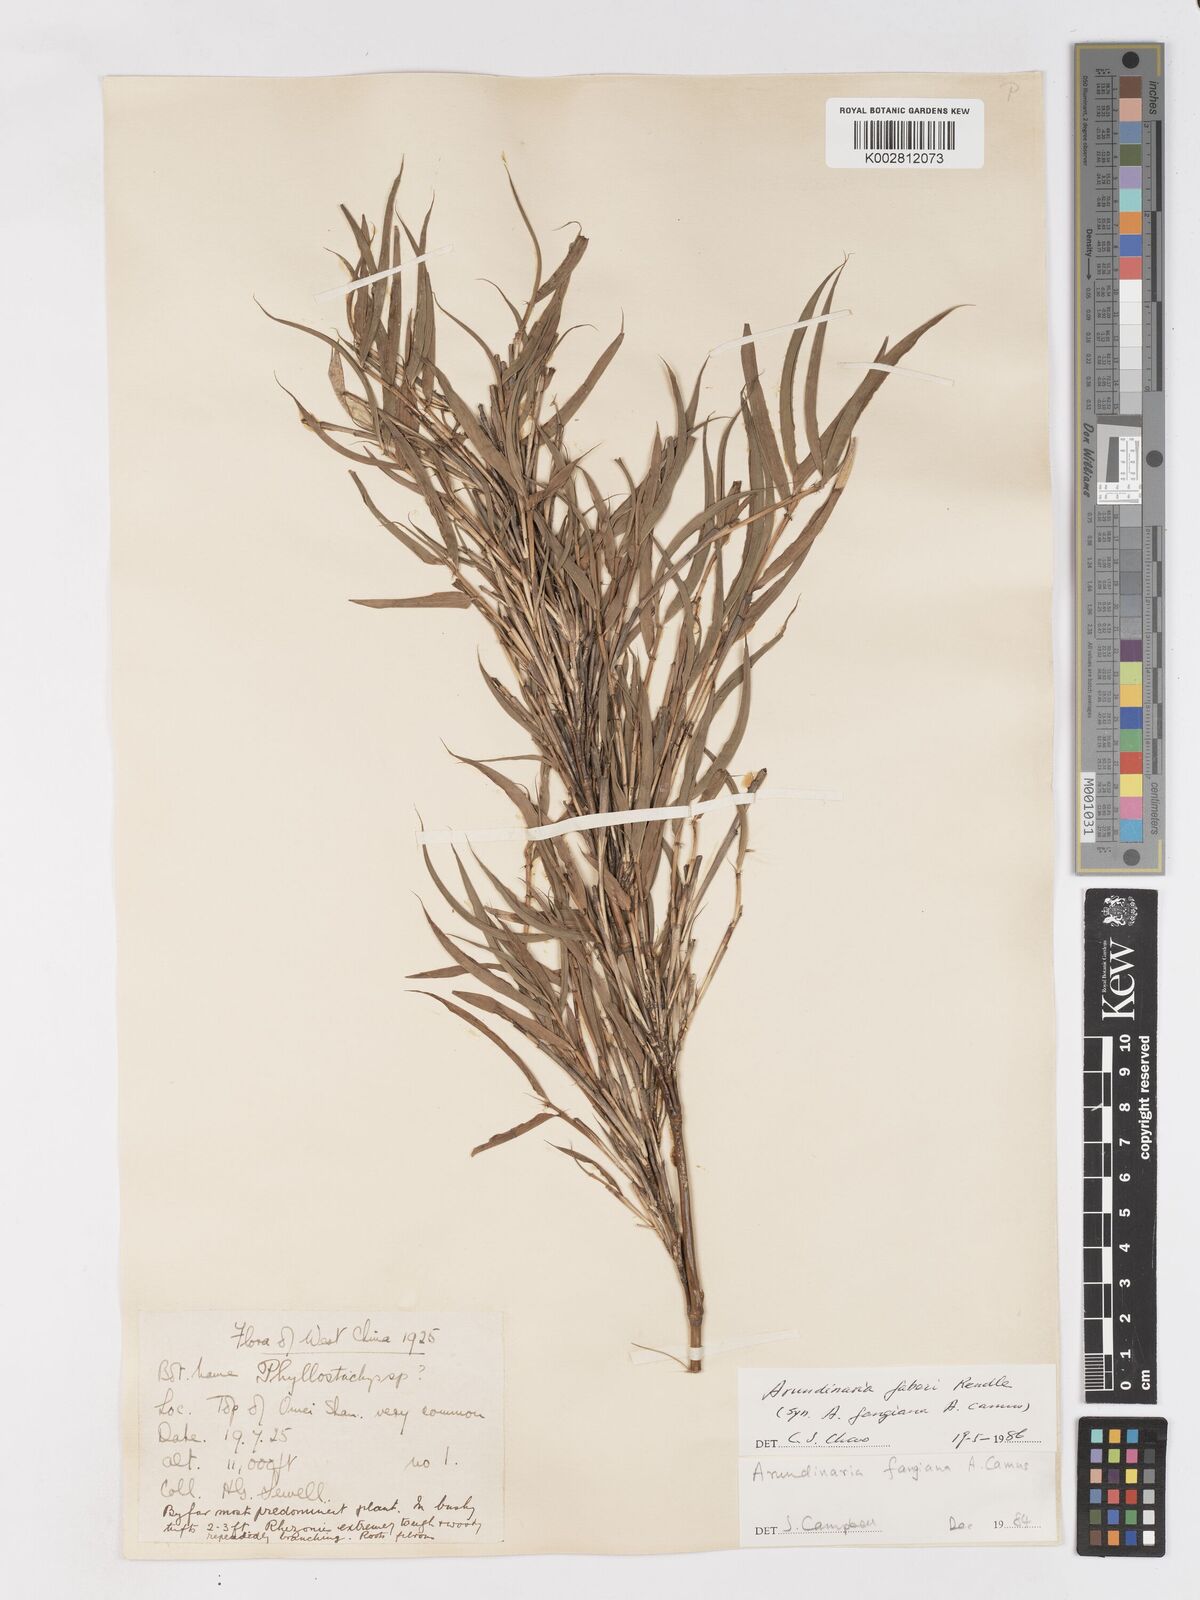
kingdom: Plantae
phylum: Tracheophyta
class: Liliopsida
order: Poales
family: Poaceae
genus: Sarocalamus
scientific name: Sarocalamus faberi
